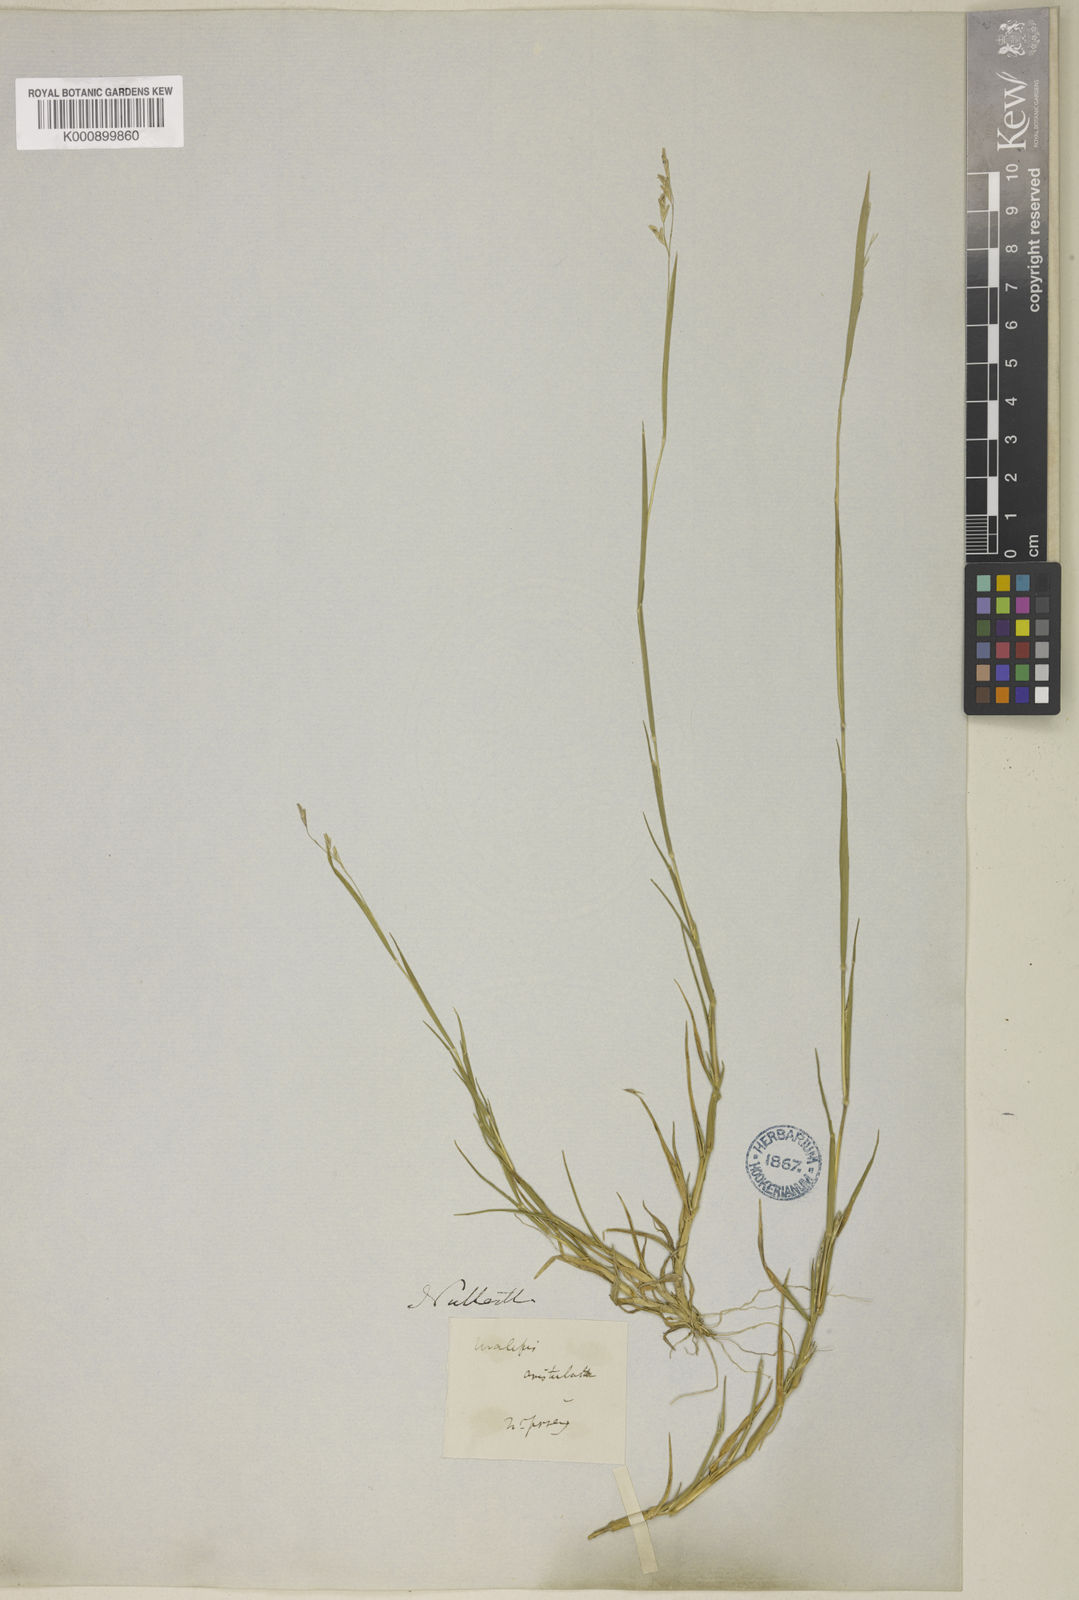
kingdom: Plantae
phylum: Tracheophyta
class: Liliopsida
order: Poales
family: Poaceae
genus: Triplasis
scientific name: Triplasis purpurea
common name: Purple sand grass
